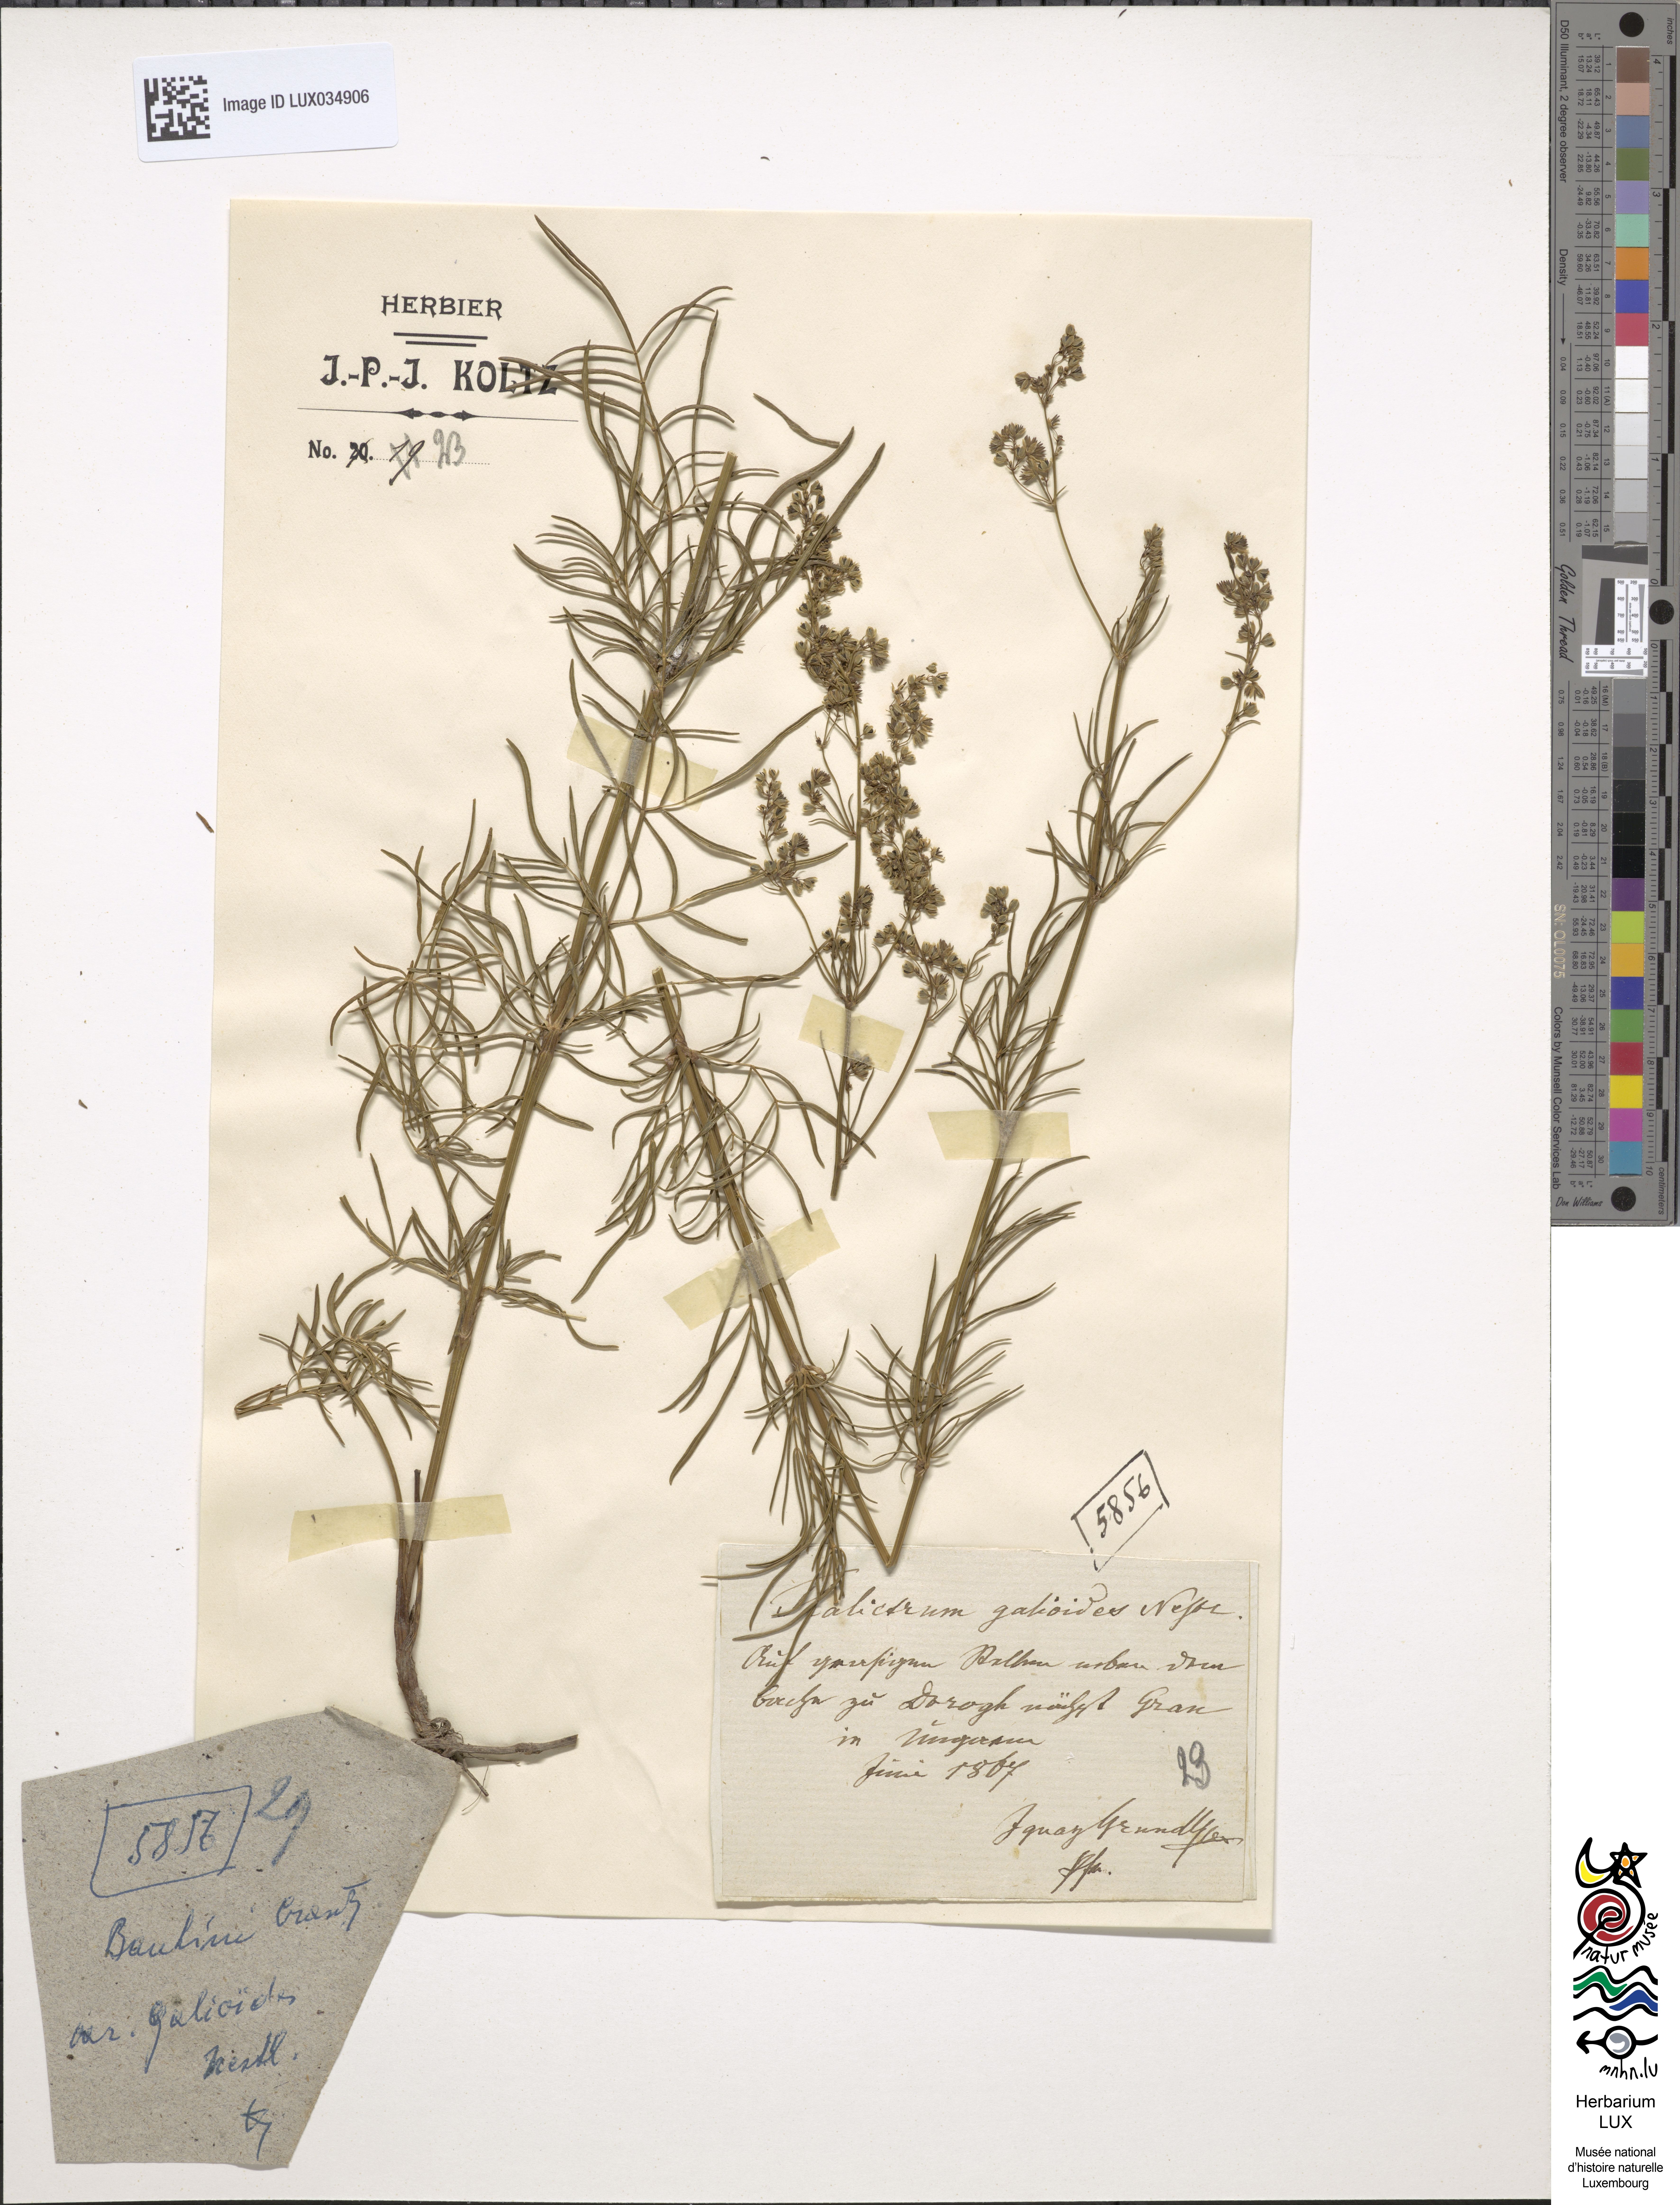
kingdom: Plantae
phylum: Tracheophyta
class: Magnoliopsida
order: Ranunculales
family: Ranunculaceae
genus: Thalictrum
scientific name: Thalictrum simplex
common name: Small meadow-rue
